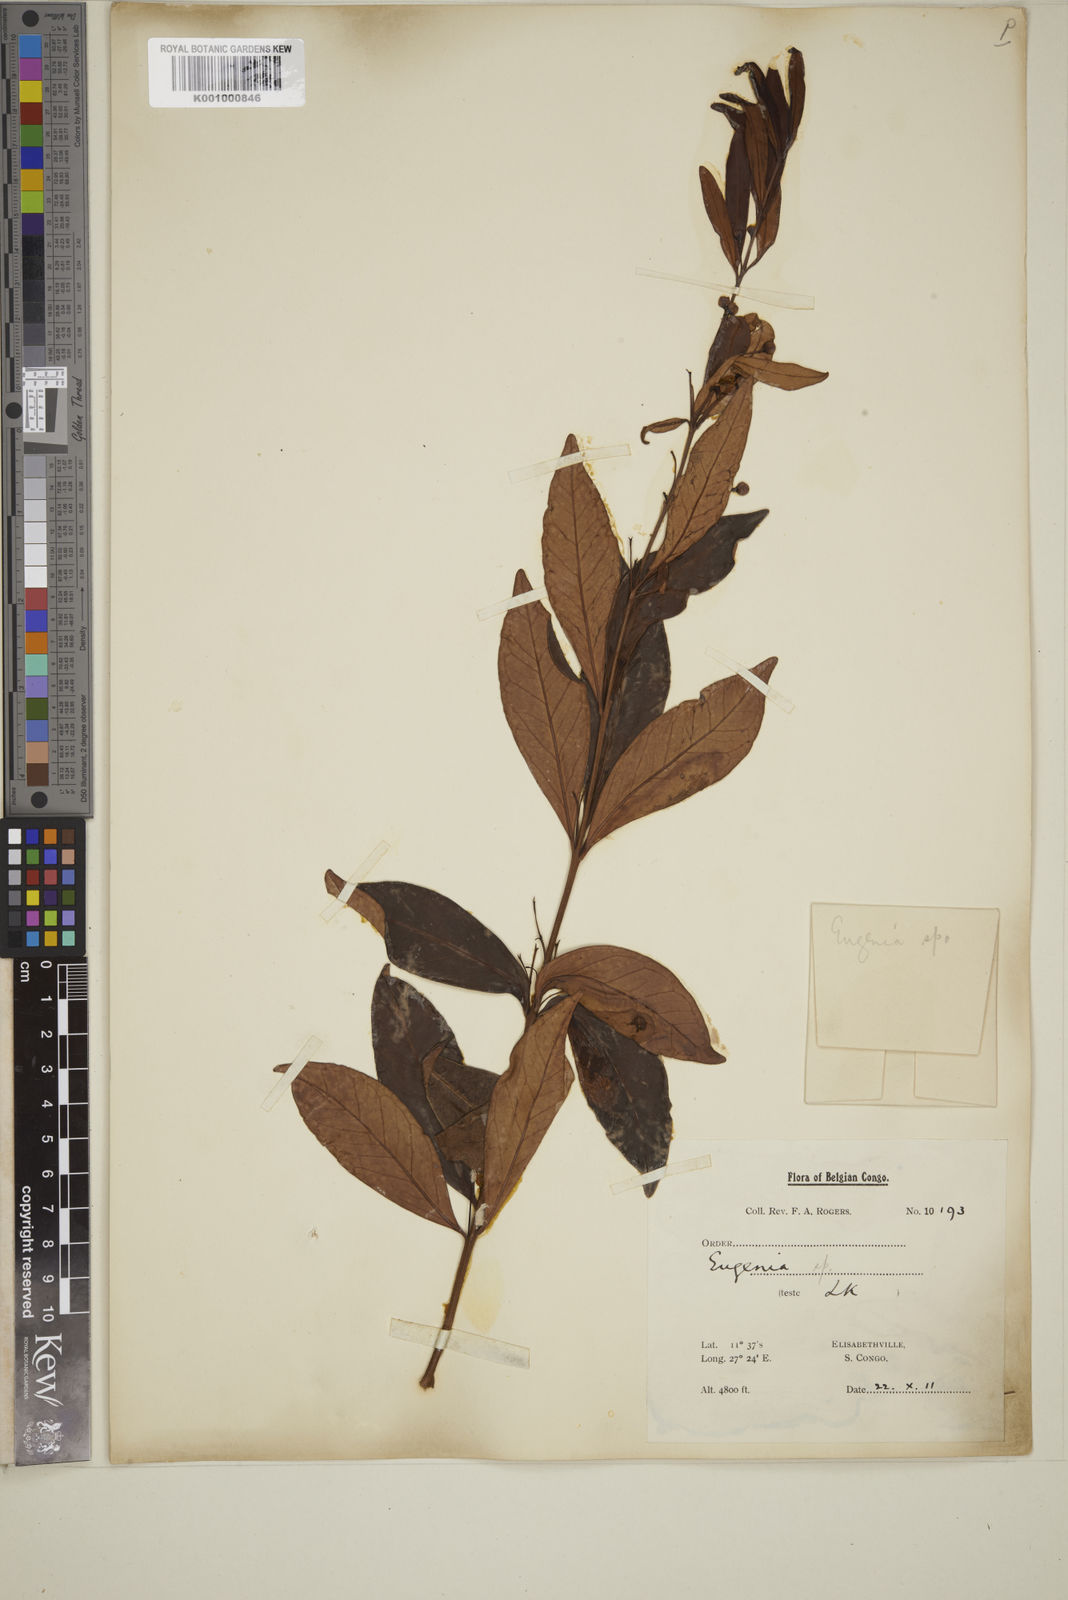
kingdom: Plantae
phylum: Tracheophyta
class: Magnoliopsida
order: Myrtales
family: Myrtaceae
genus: Eugenia
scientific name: Eugenia coronata
